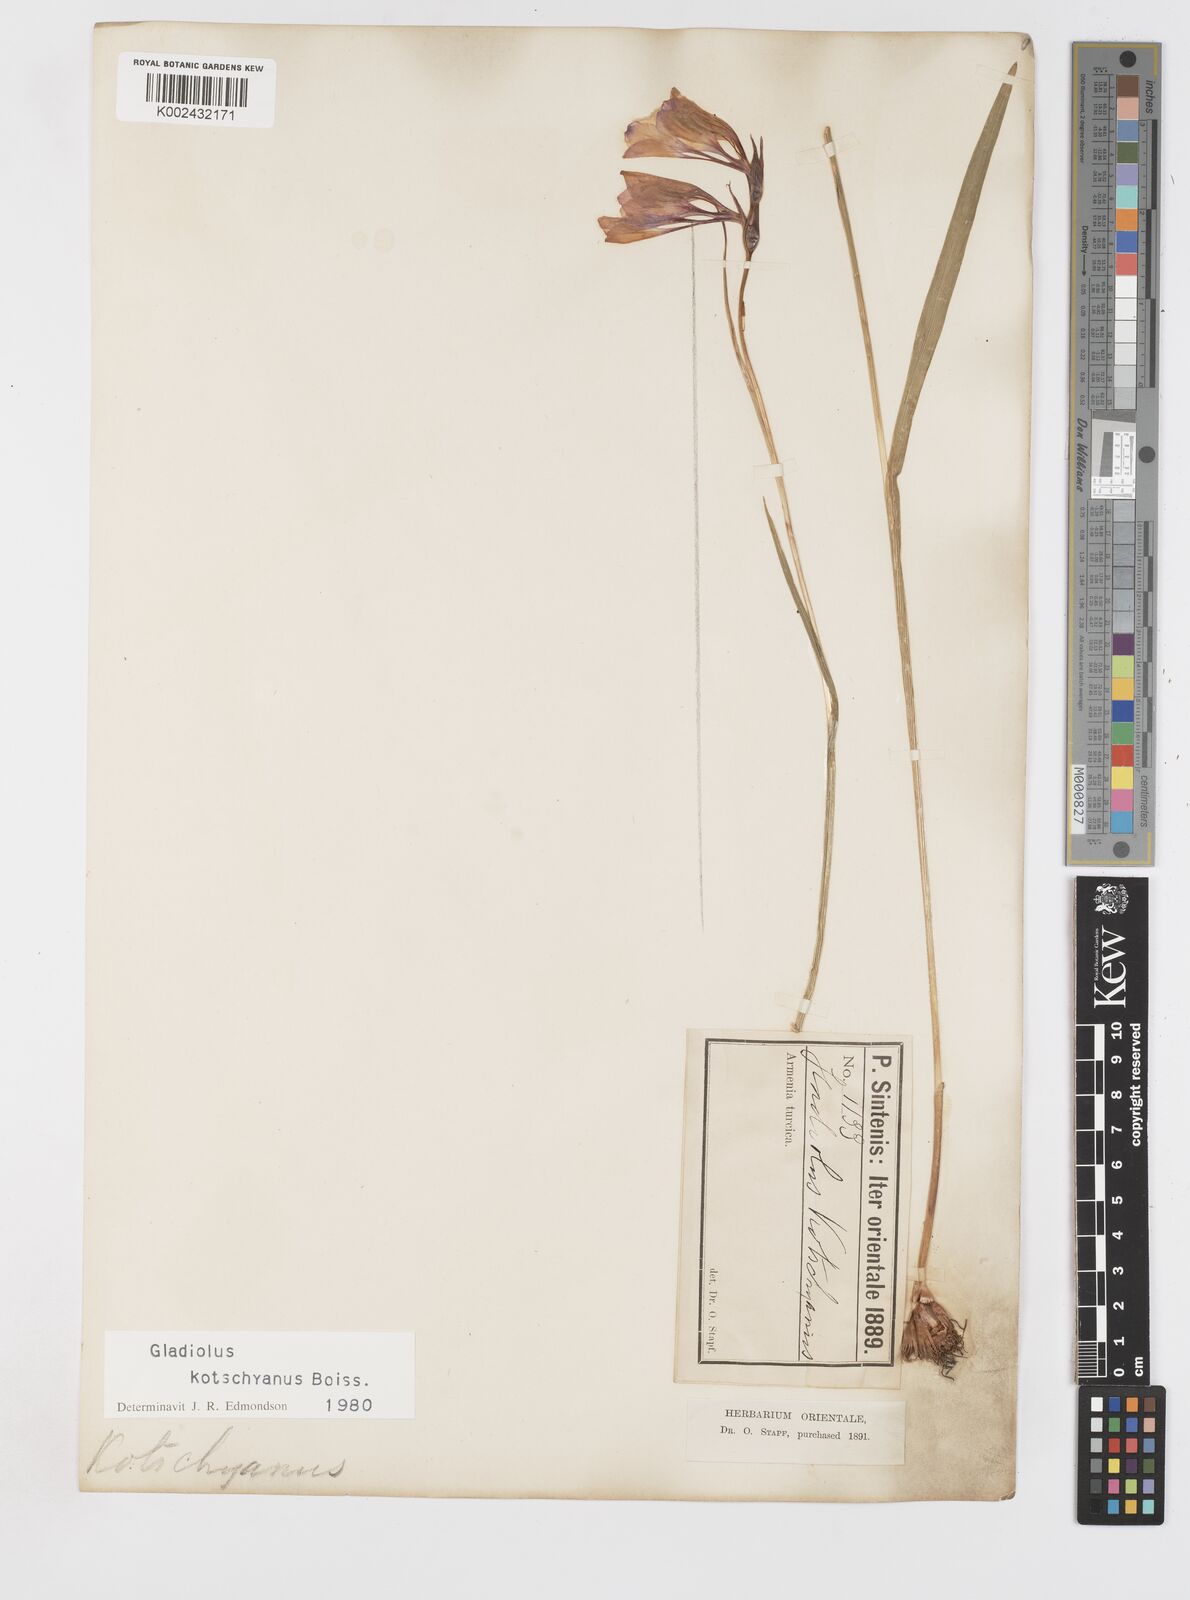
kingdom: Plantae
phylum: Tracheophyta
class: Liliopsida
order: Asparagales
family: Iridaceae
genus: Gladiolus
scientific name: Gladiolus imbricatus
